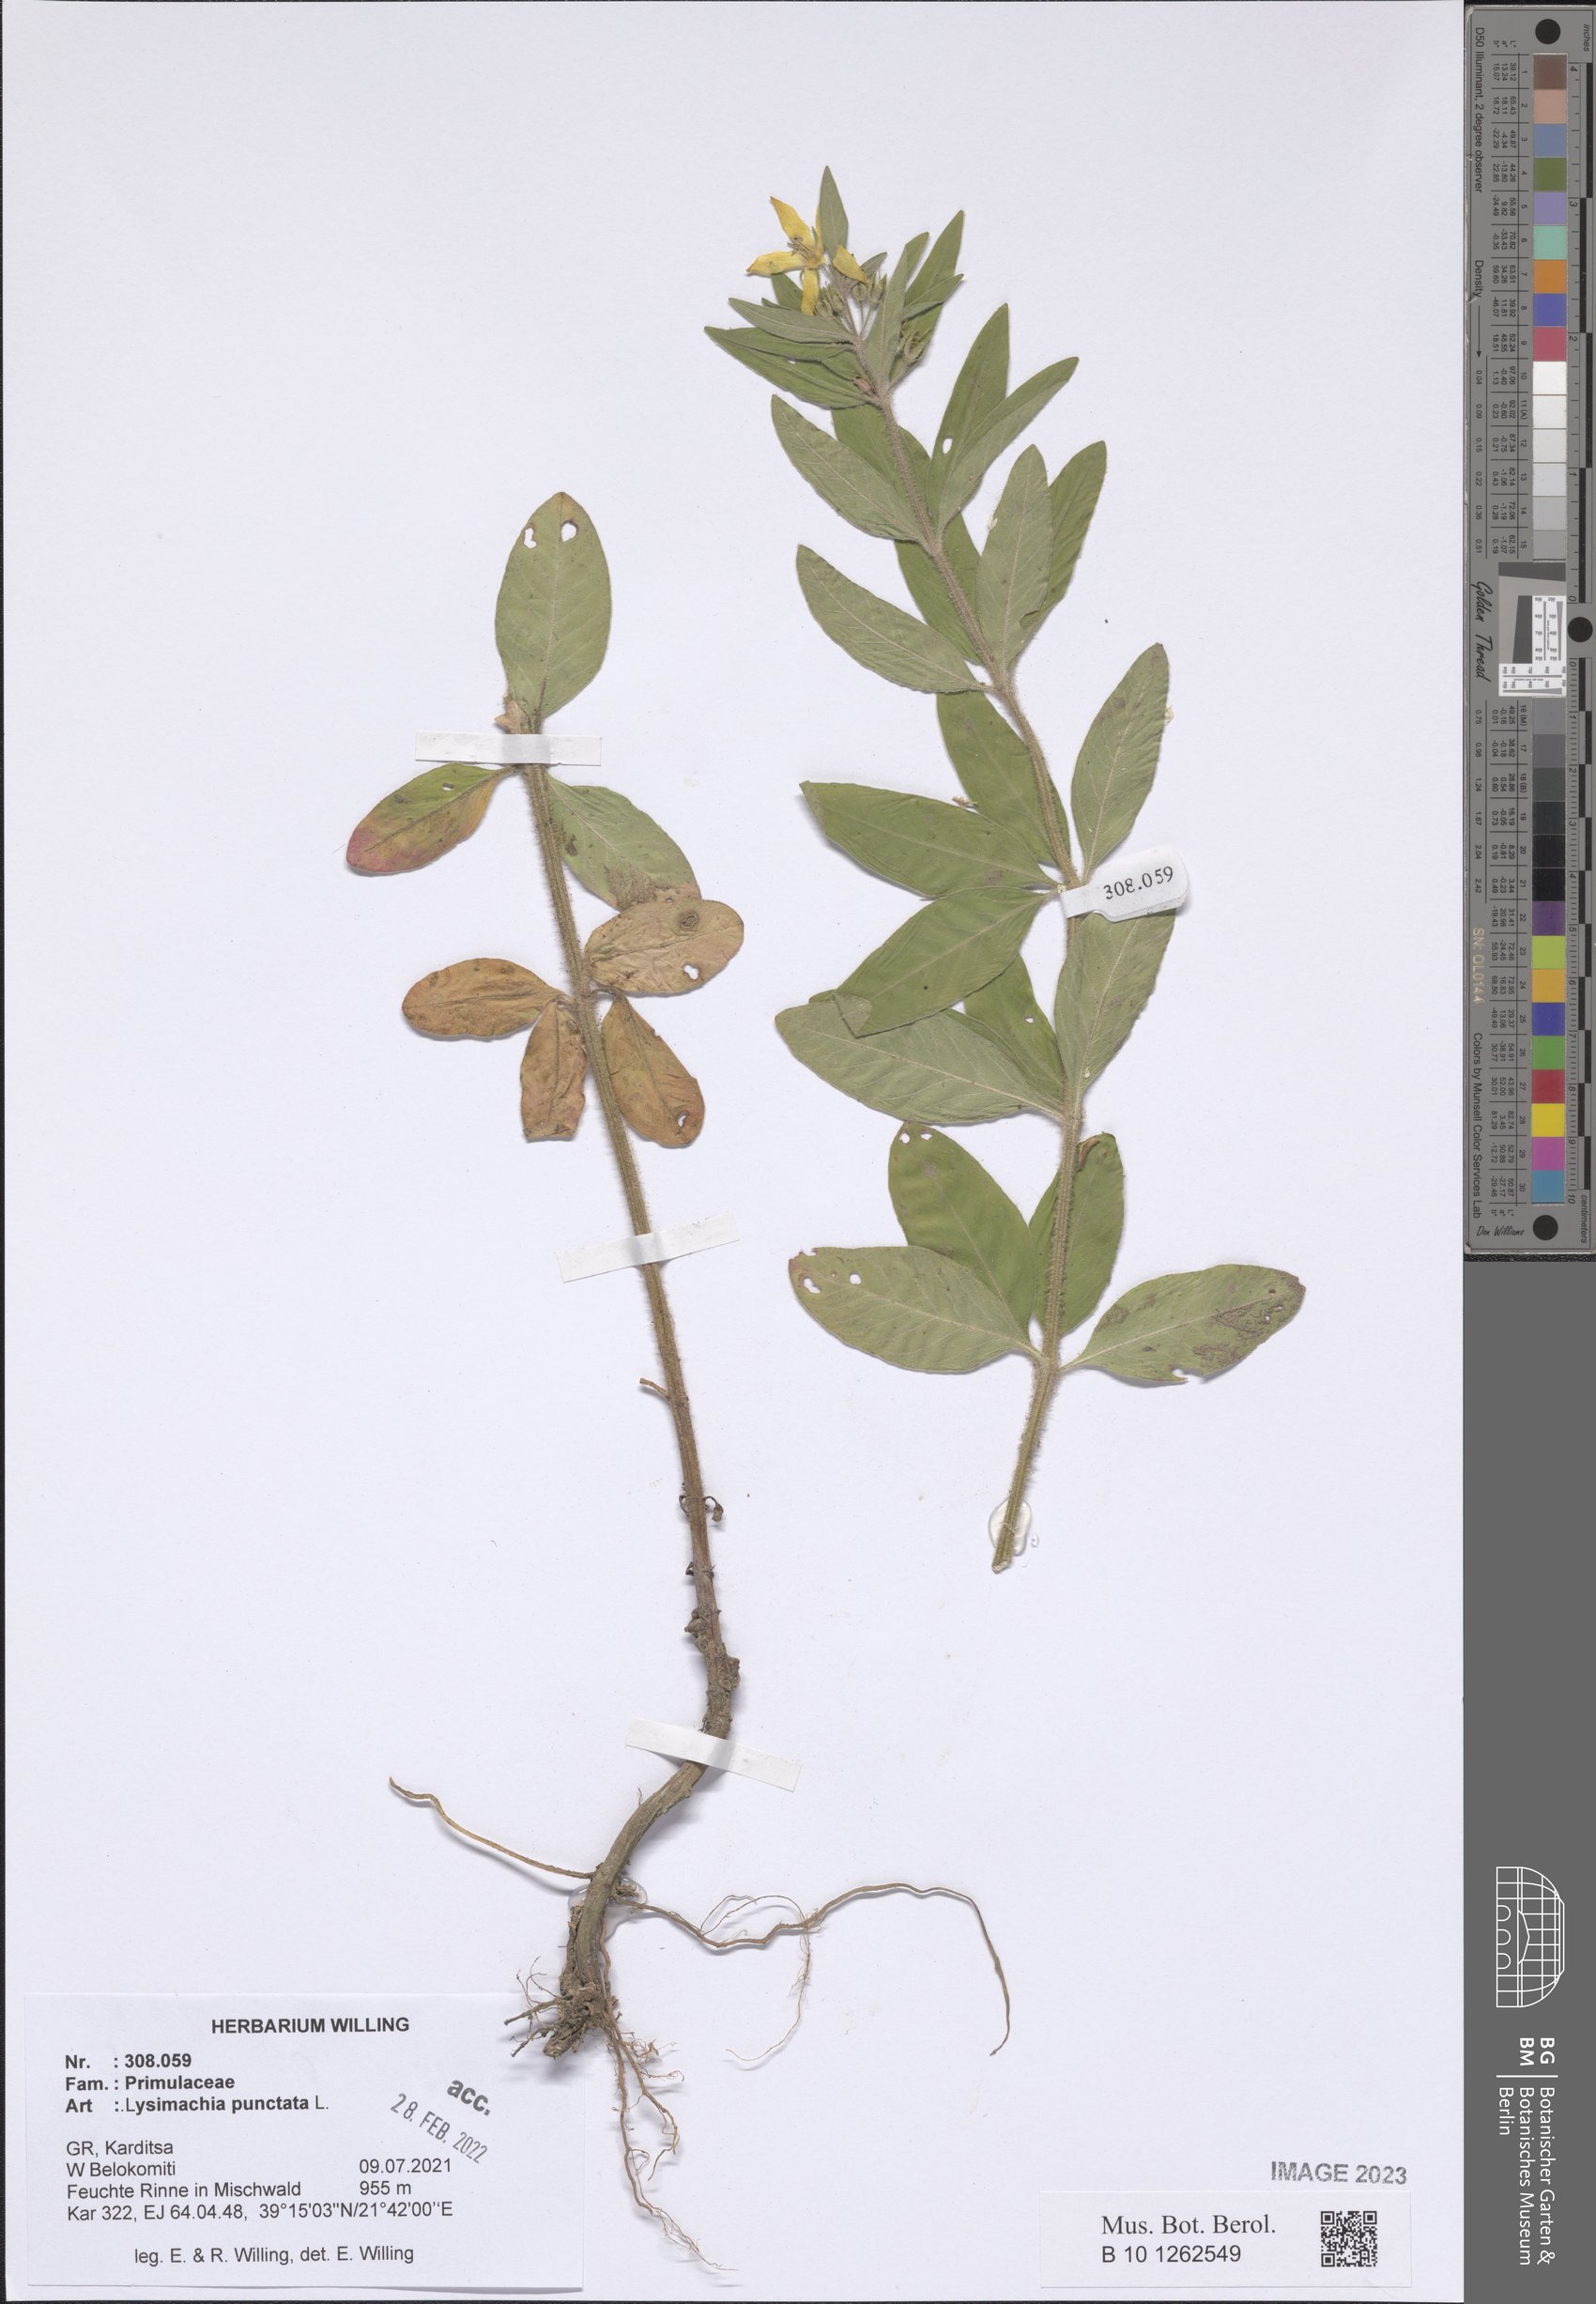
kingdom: Plantae
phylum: Tracheophyta
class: Magnoliopsida
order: Ericales
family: Primulaceae
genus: Lysimachia
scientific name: Lysimachia punctata
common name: Dotted loosestrife
